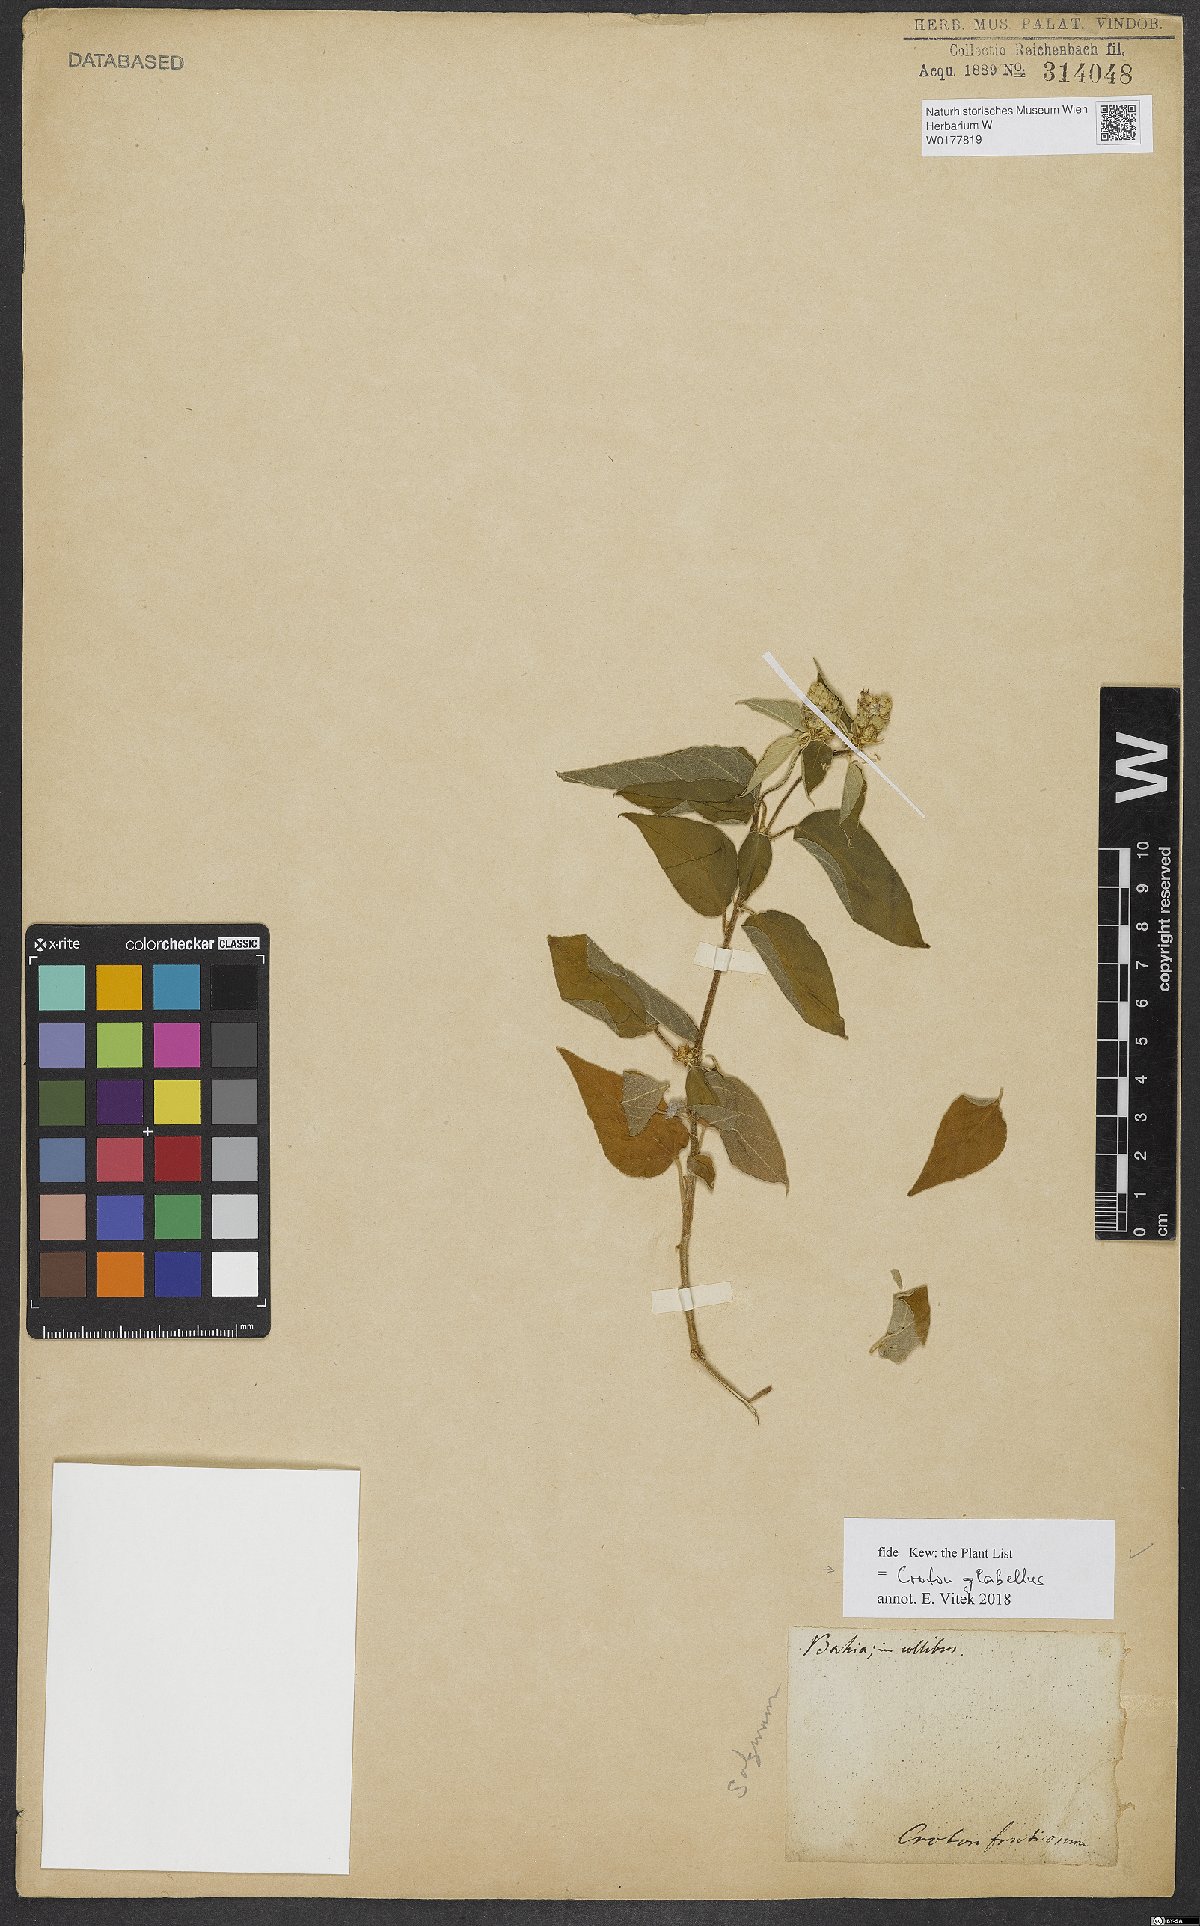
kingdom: Plantae
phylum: Tracheophyta
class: Magnoliopsida
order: Malpighiales
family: Euphorbiaceae
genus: Croton
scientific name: Croton glabellus
